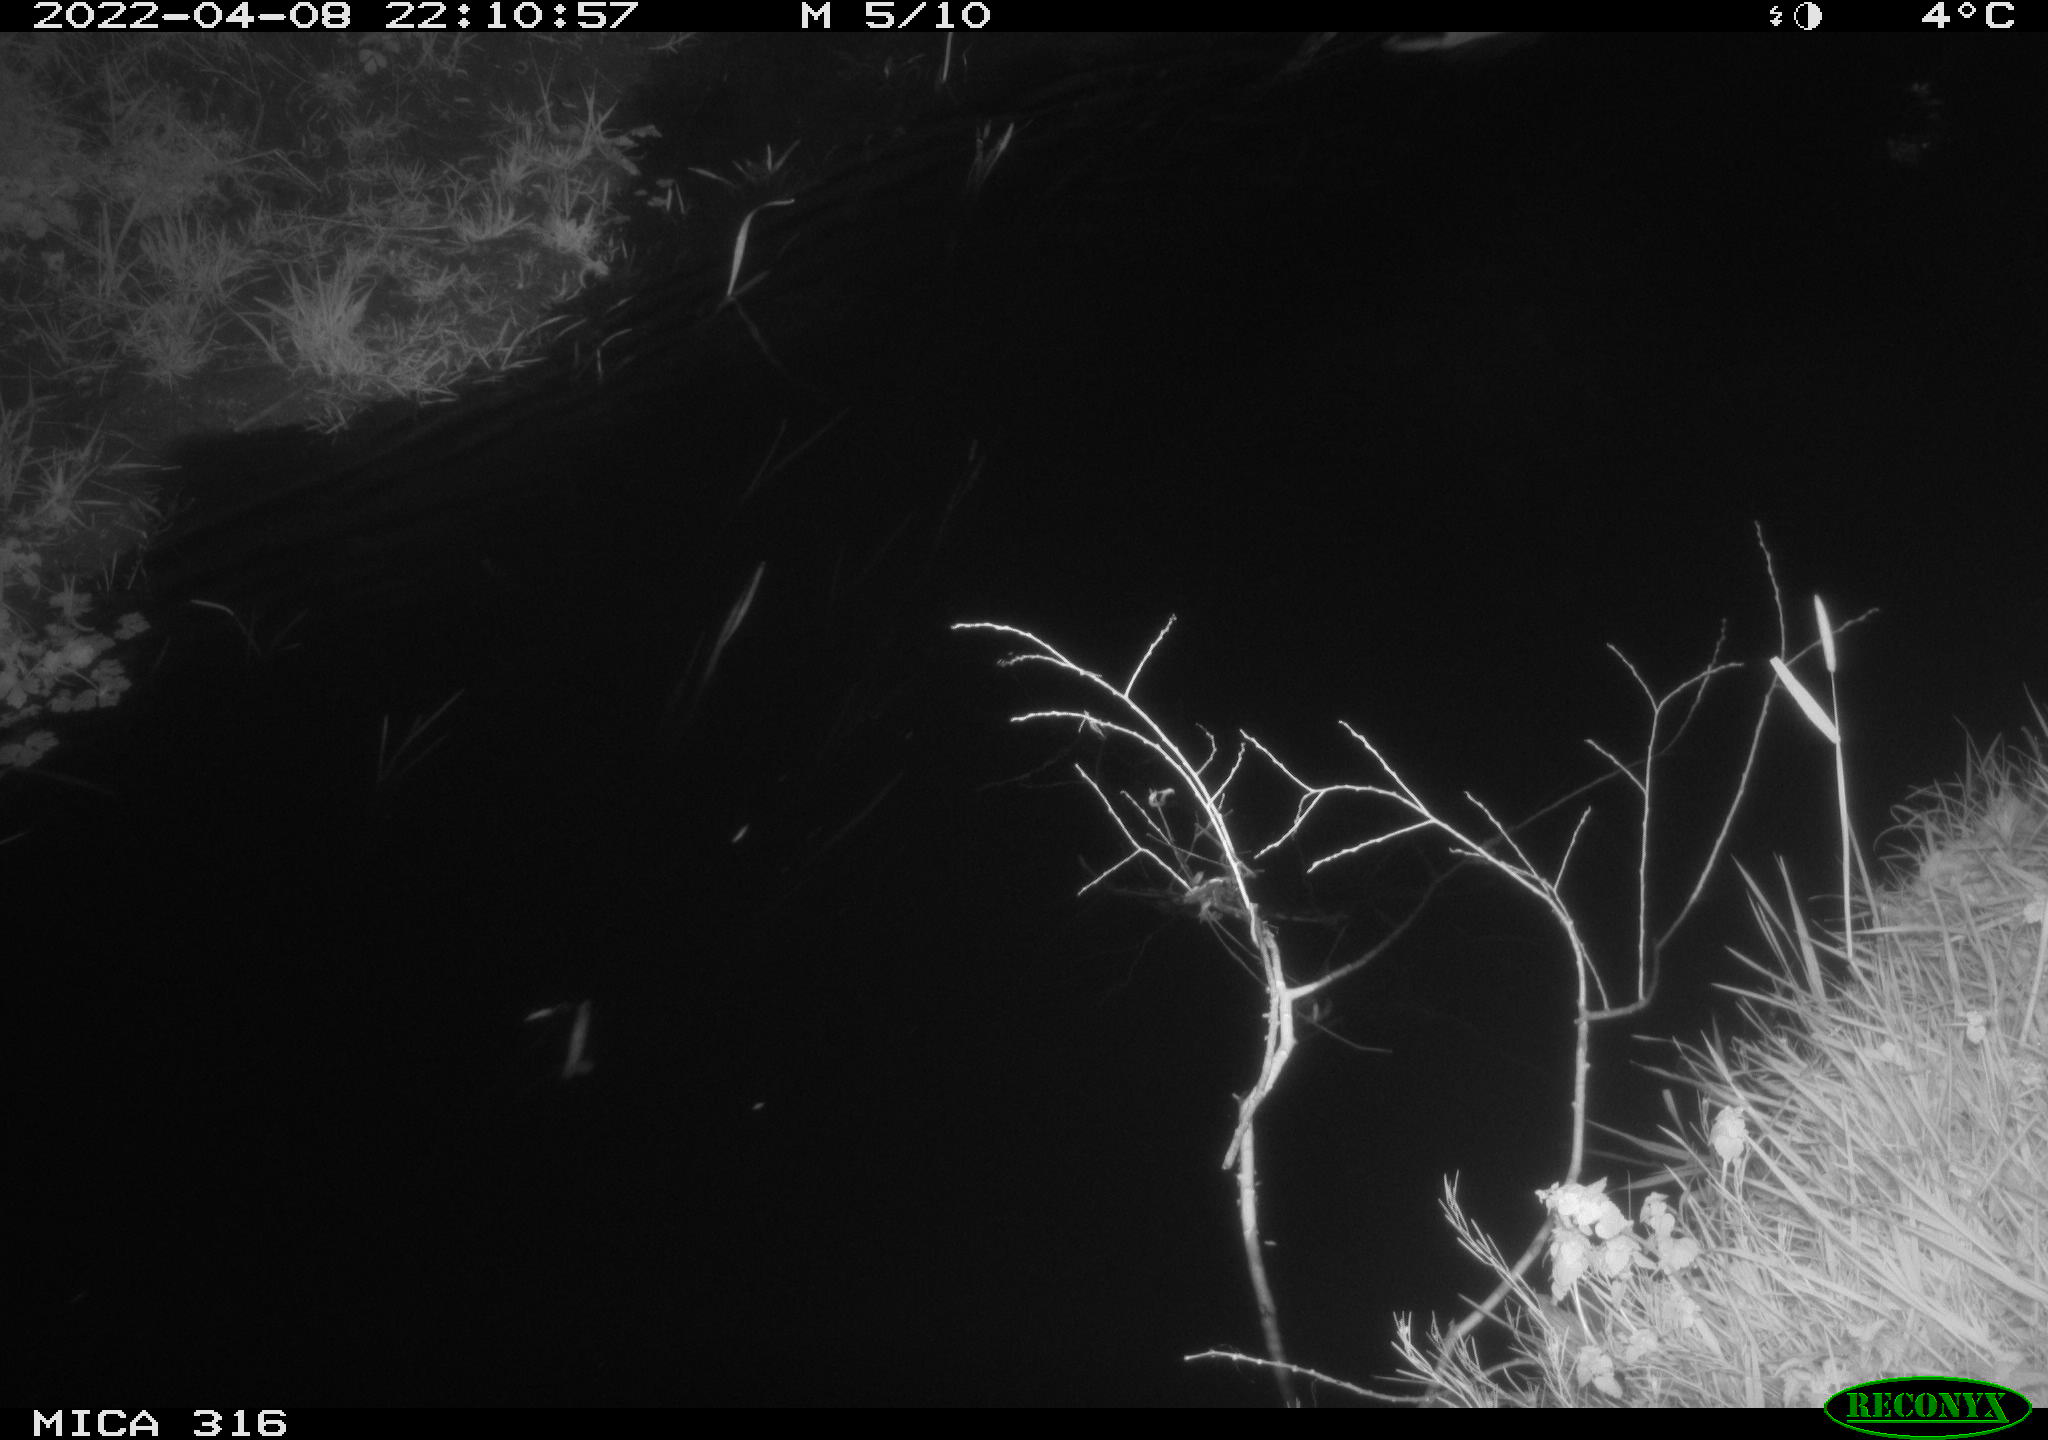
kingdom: Animalia
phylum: Chordata
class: Aves
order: Anseriformes
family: Anatidae
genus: Anas
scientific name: Anas platyrhynchos
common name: Mallard
